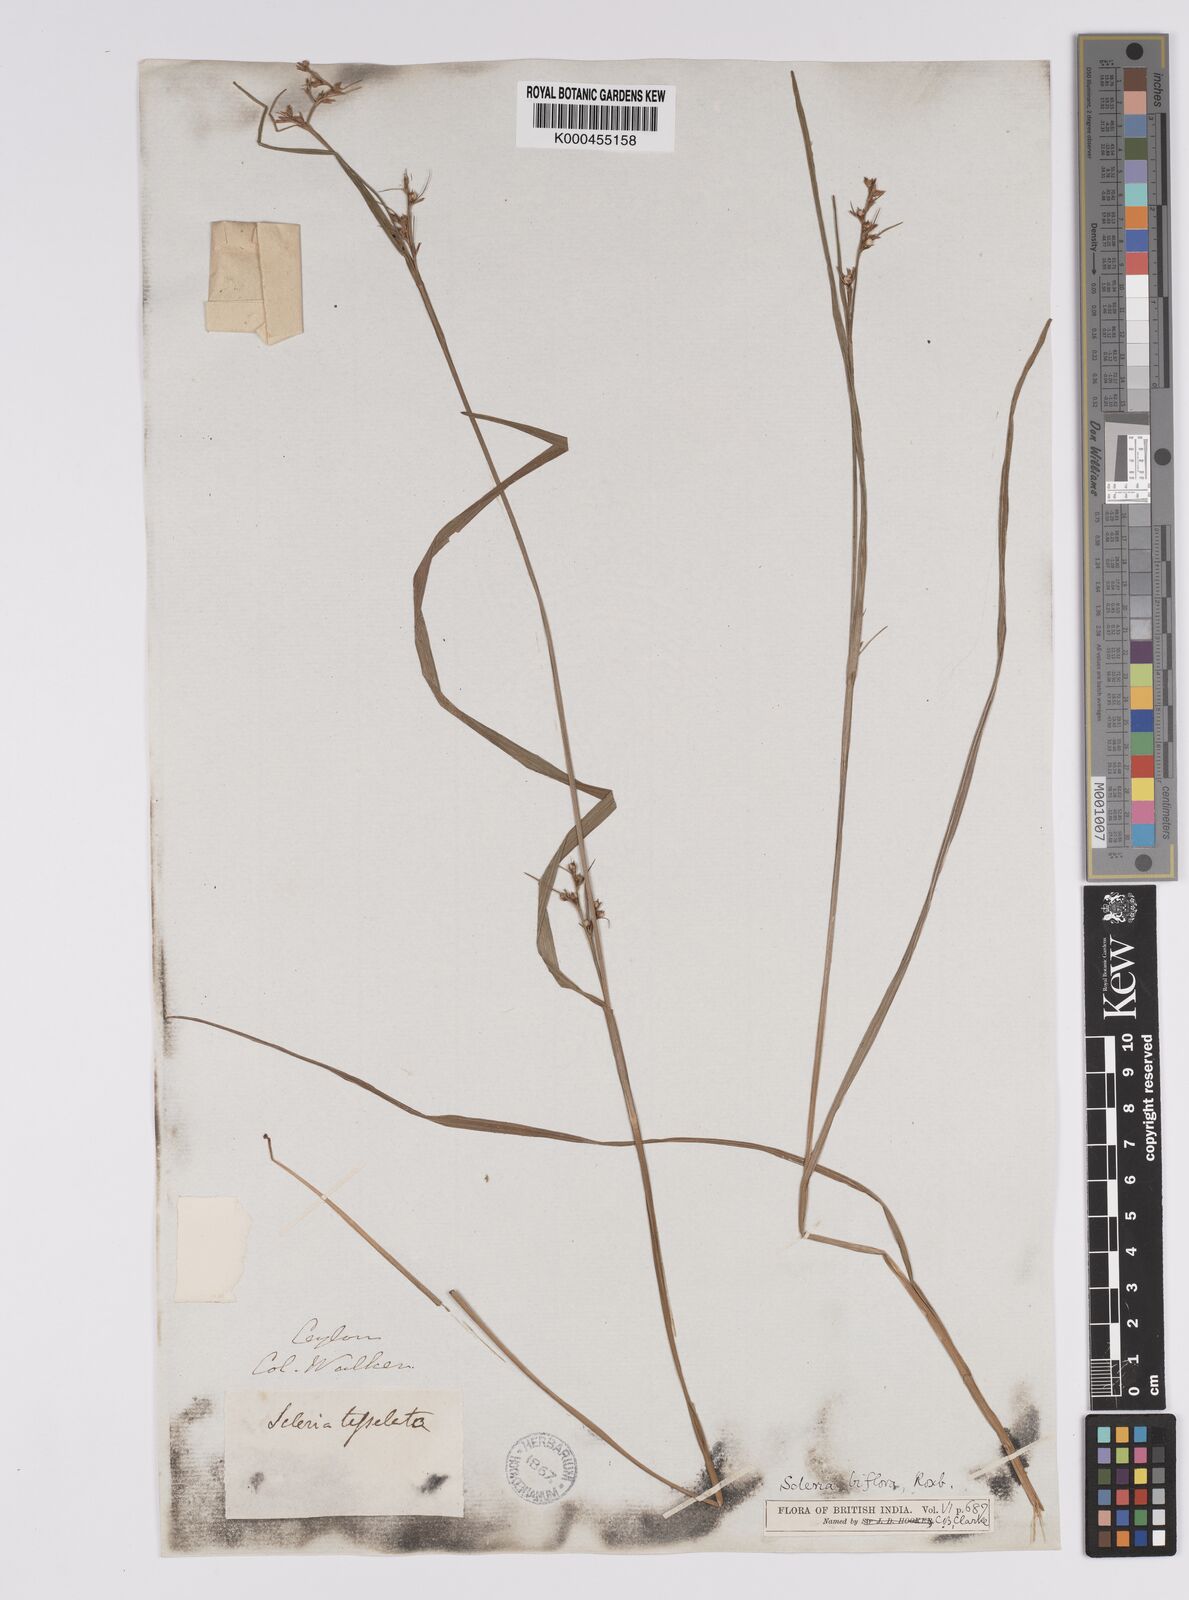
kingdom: Plantae
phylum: Tracheophyta
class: Liliopsida
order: Poales
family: Cyperaceae
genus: Scleria
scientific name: Scleria biflora
